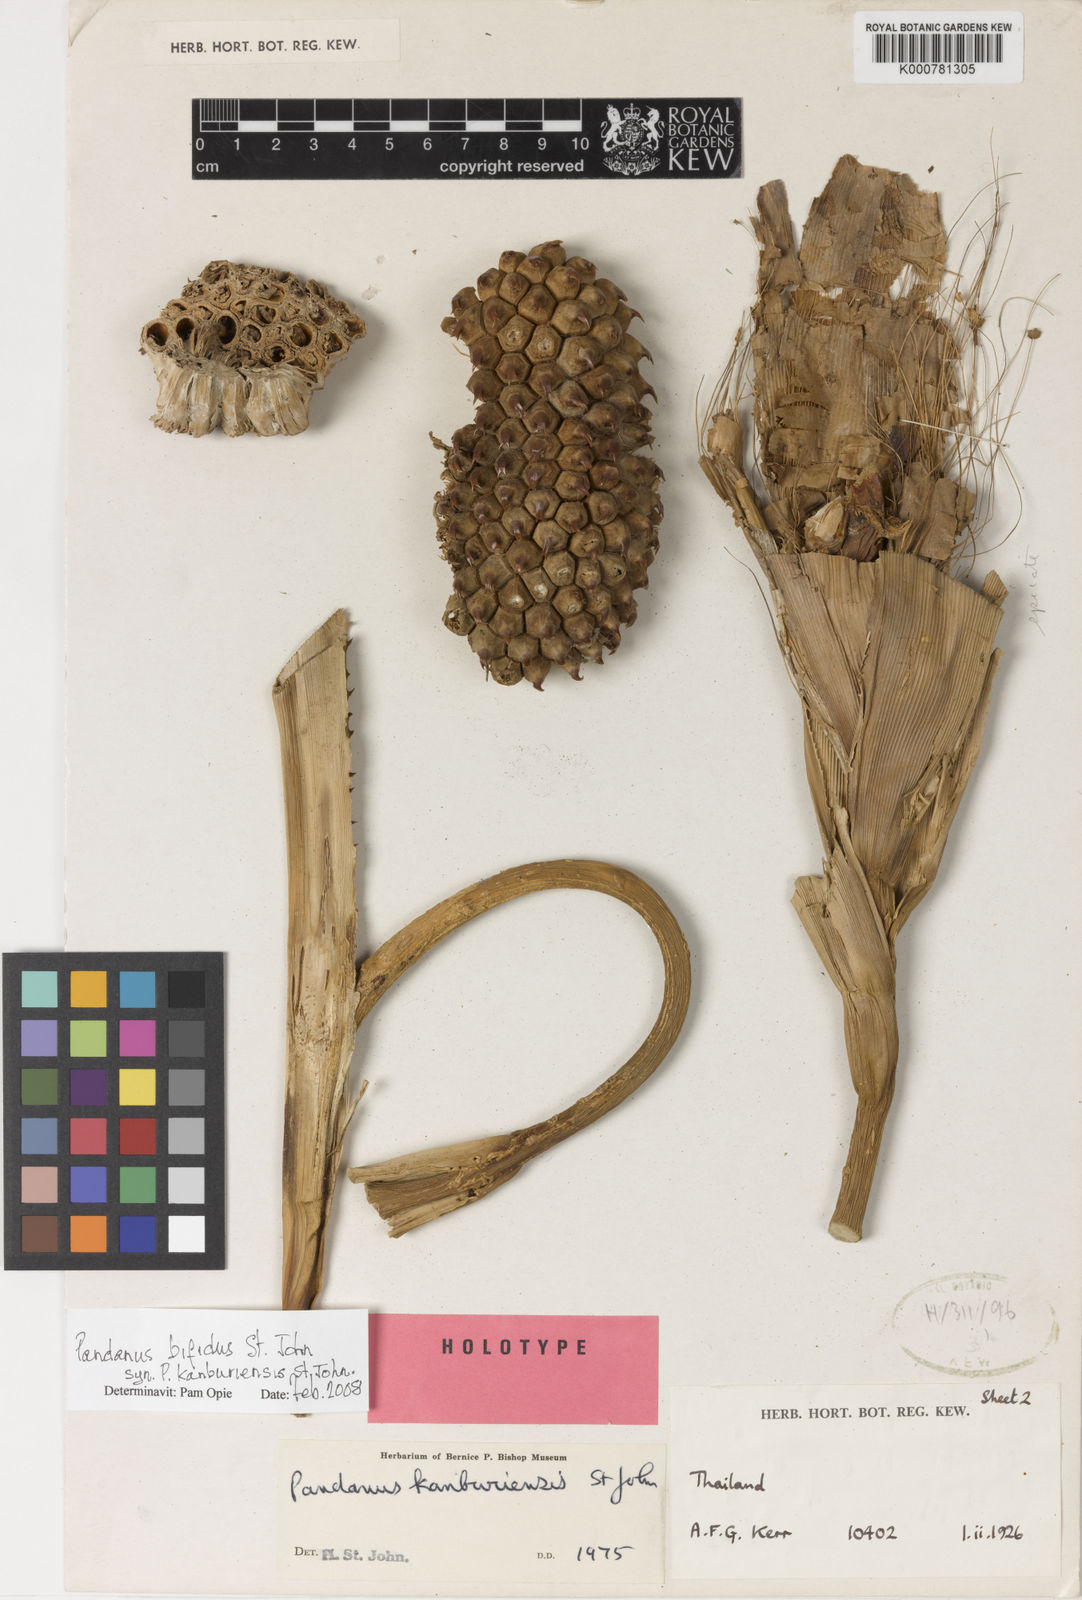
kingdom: Plantae
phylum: Tracheophyta
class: Liliopsida
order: Pandanales
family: Pandanaceae
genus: Pandanus
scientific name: Pandanus obconicus
